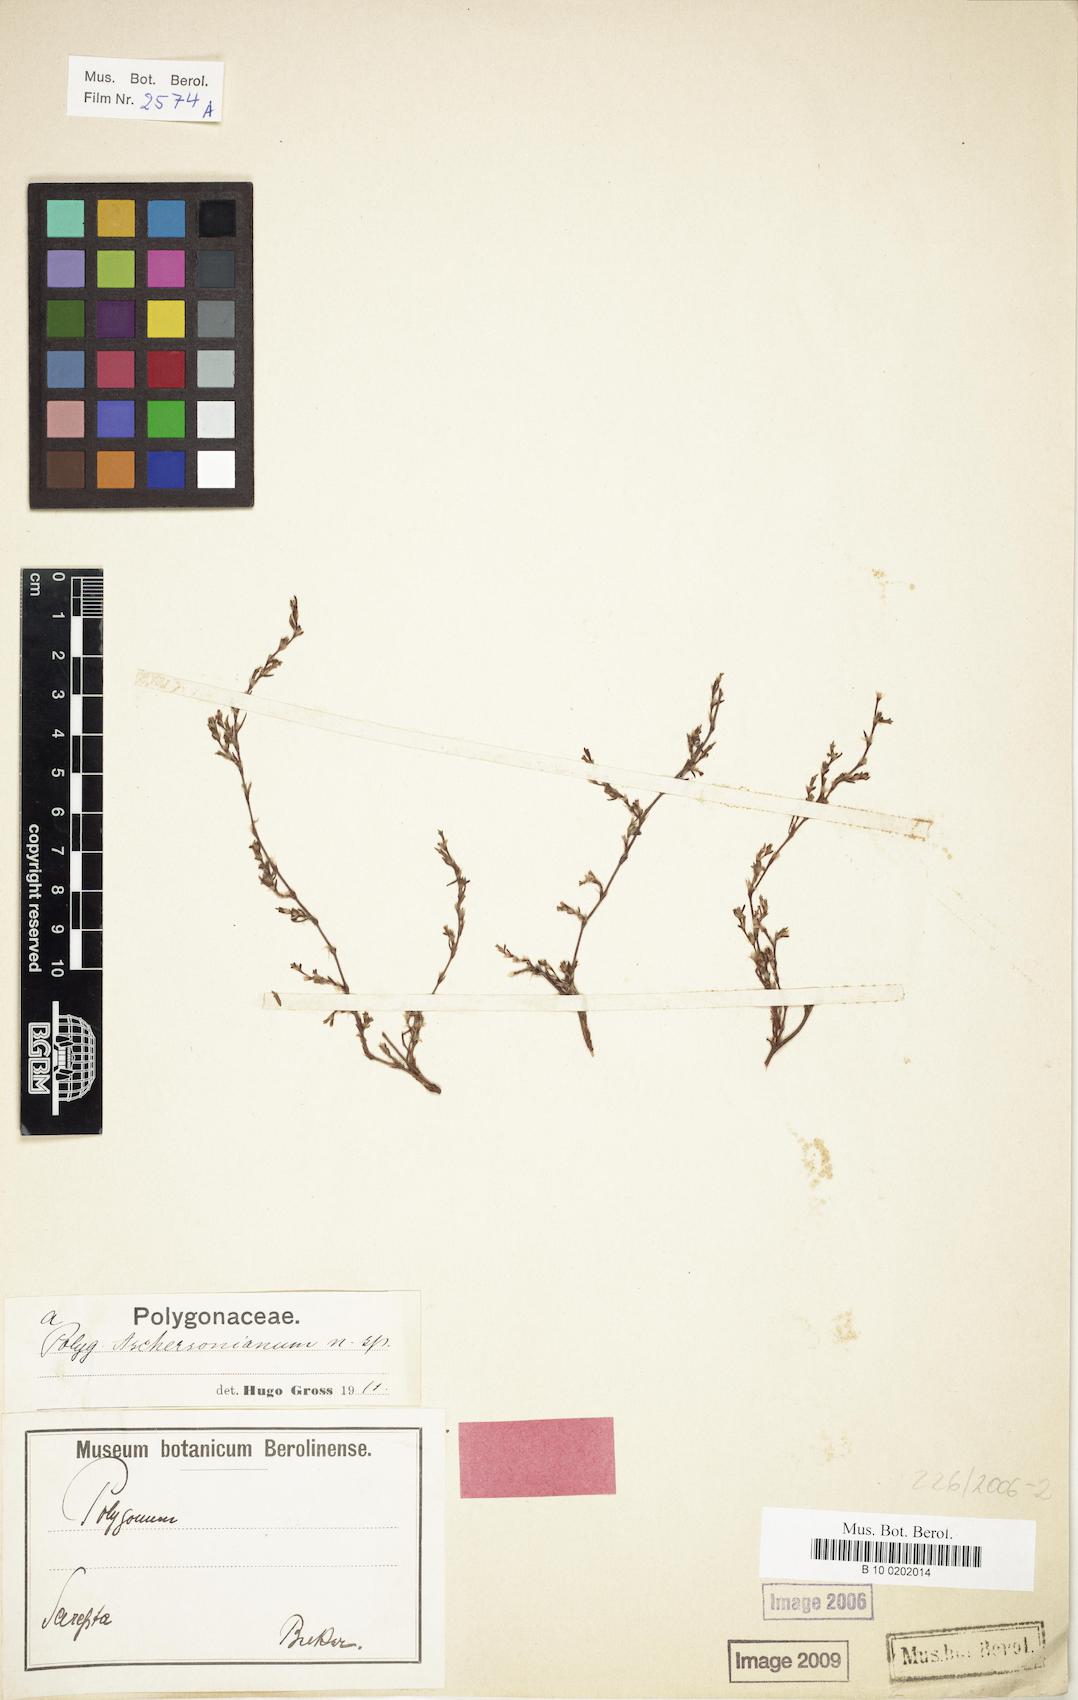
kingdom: Plantae
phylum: Tracheophyta
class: Magnoliopsida
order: Caryophyllales
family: Polygonaceae
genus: Polygonum
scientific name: Polygonum aschersonianum
